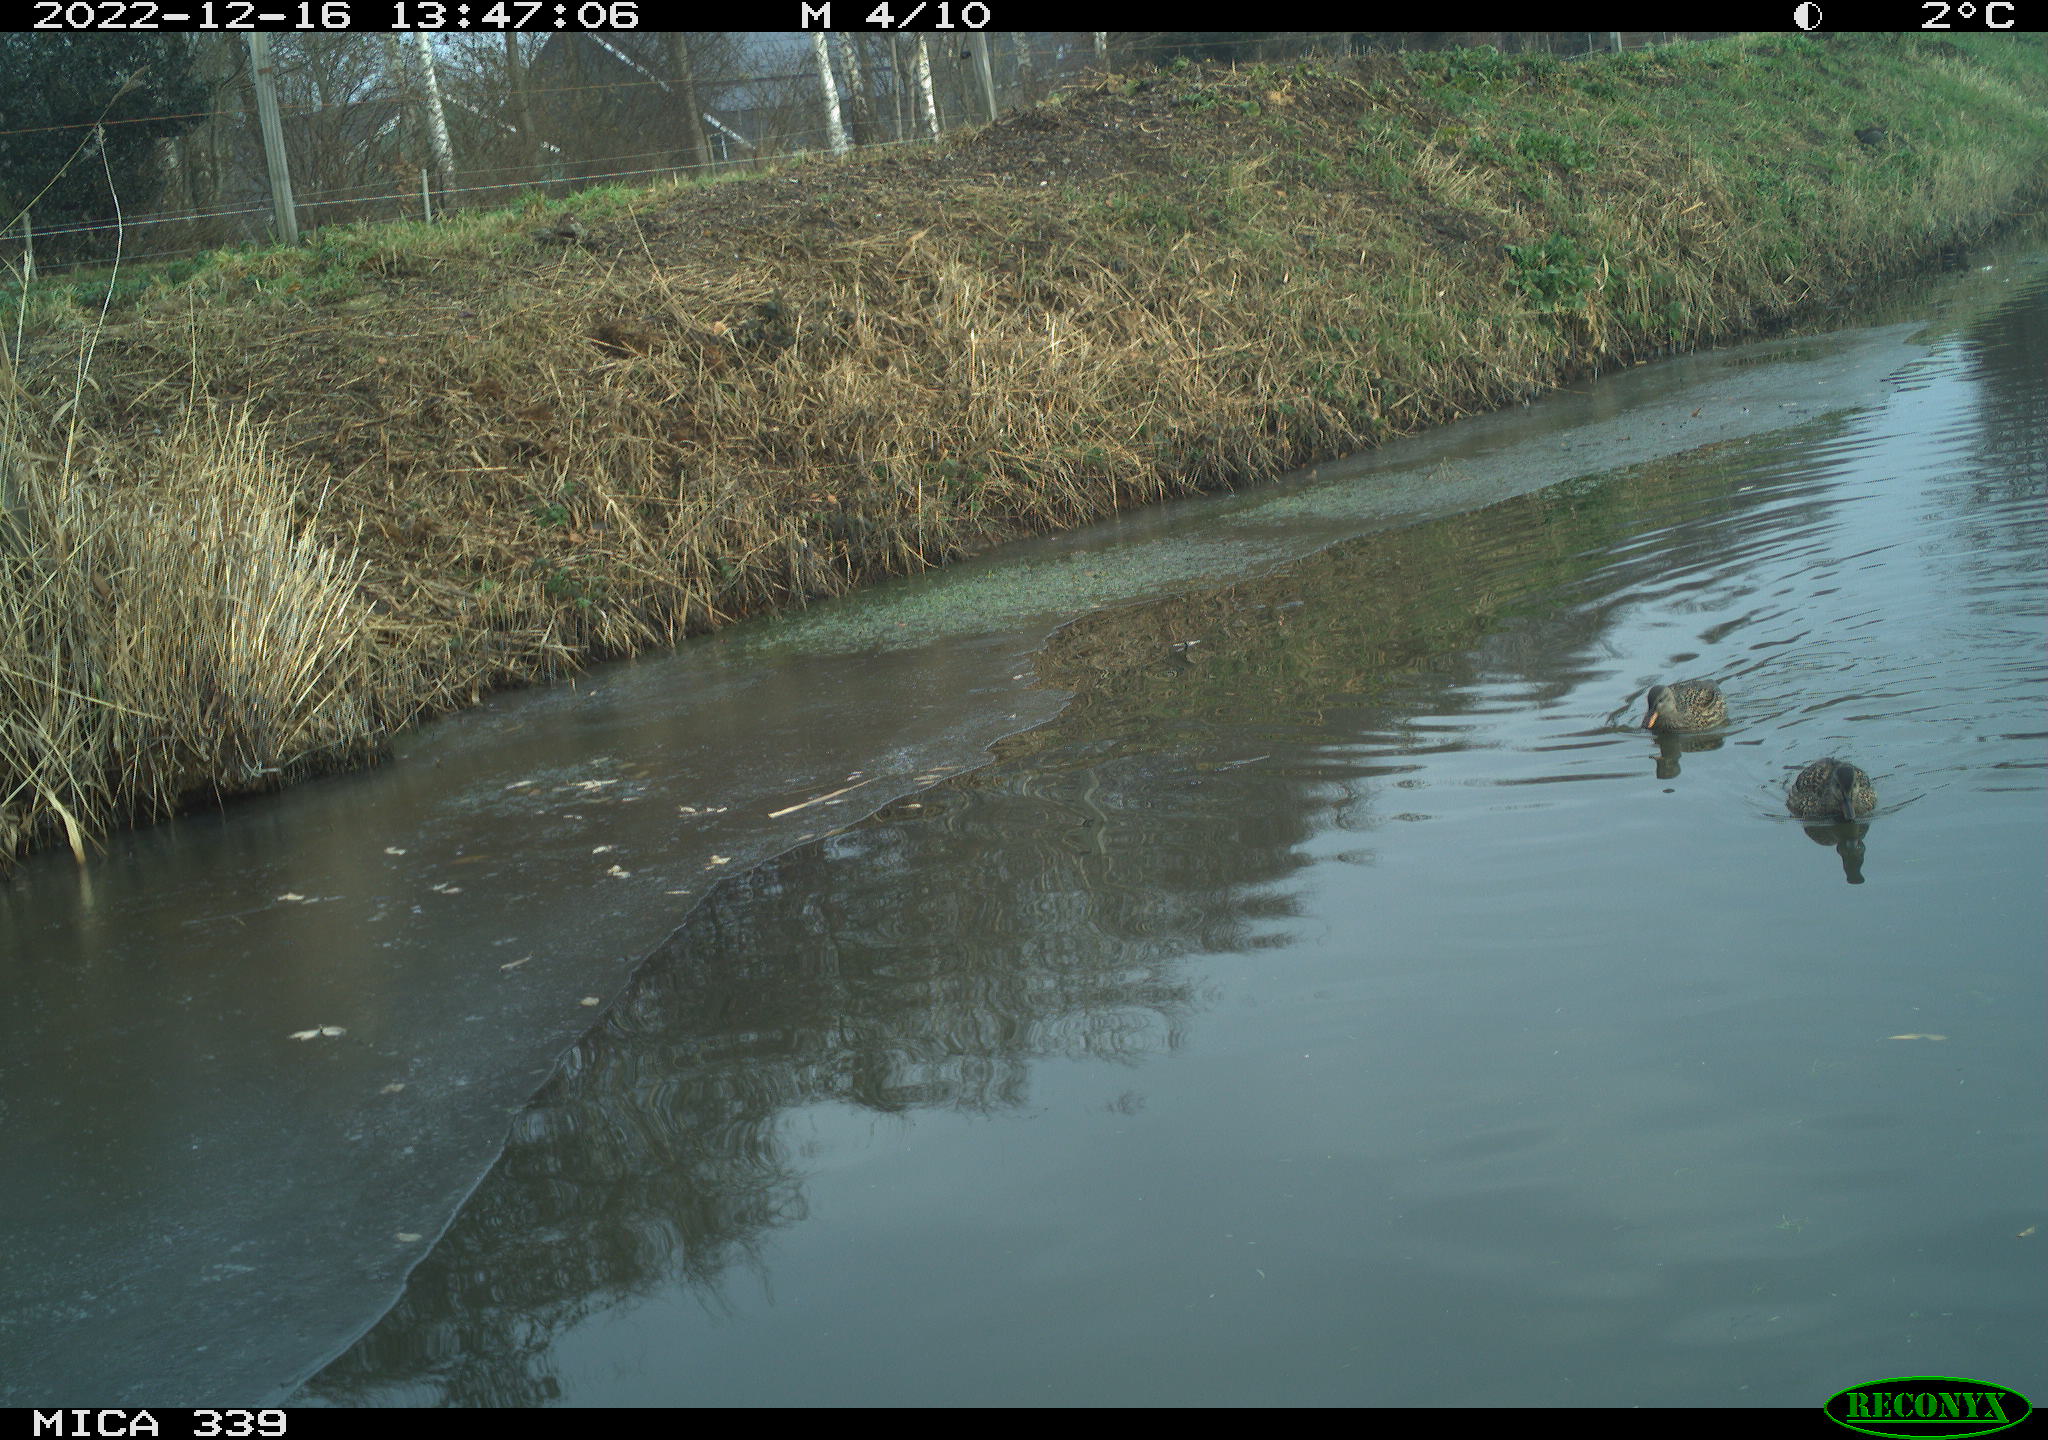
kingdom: Animalia
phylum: Chordata
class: Aves
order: Anseriformes
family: Anatidae
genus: Anas
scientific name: Anas
